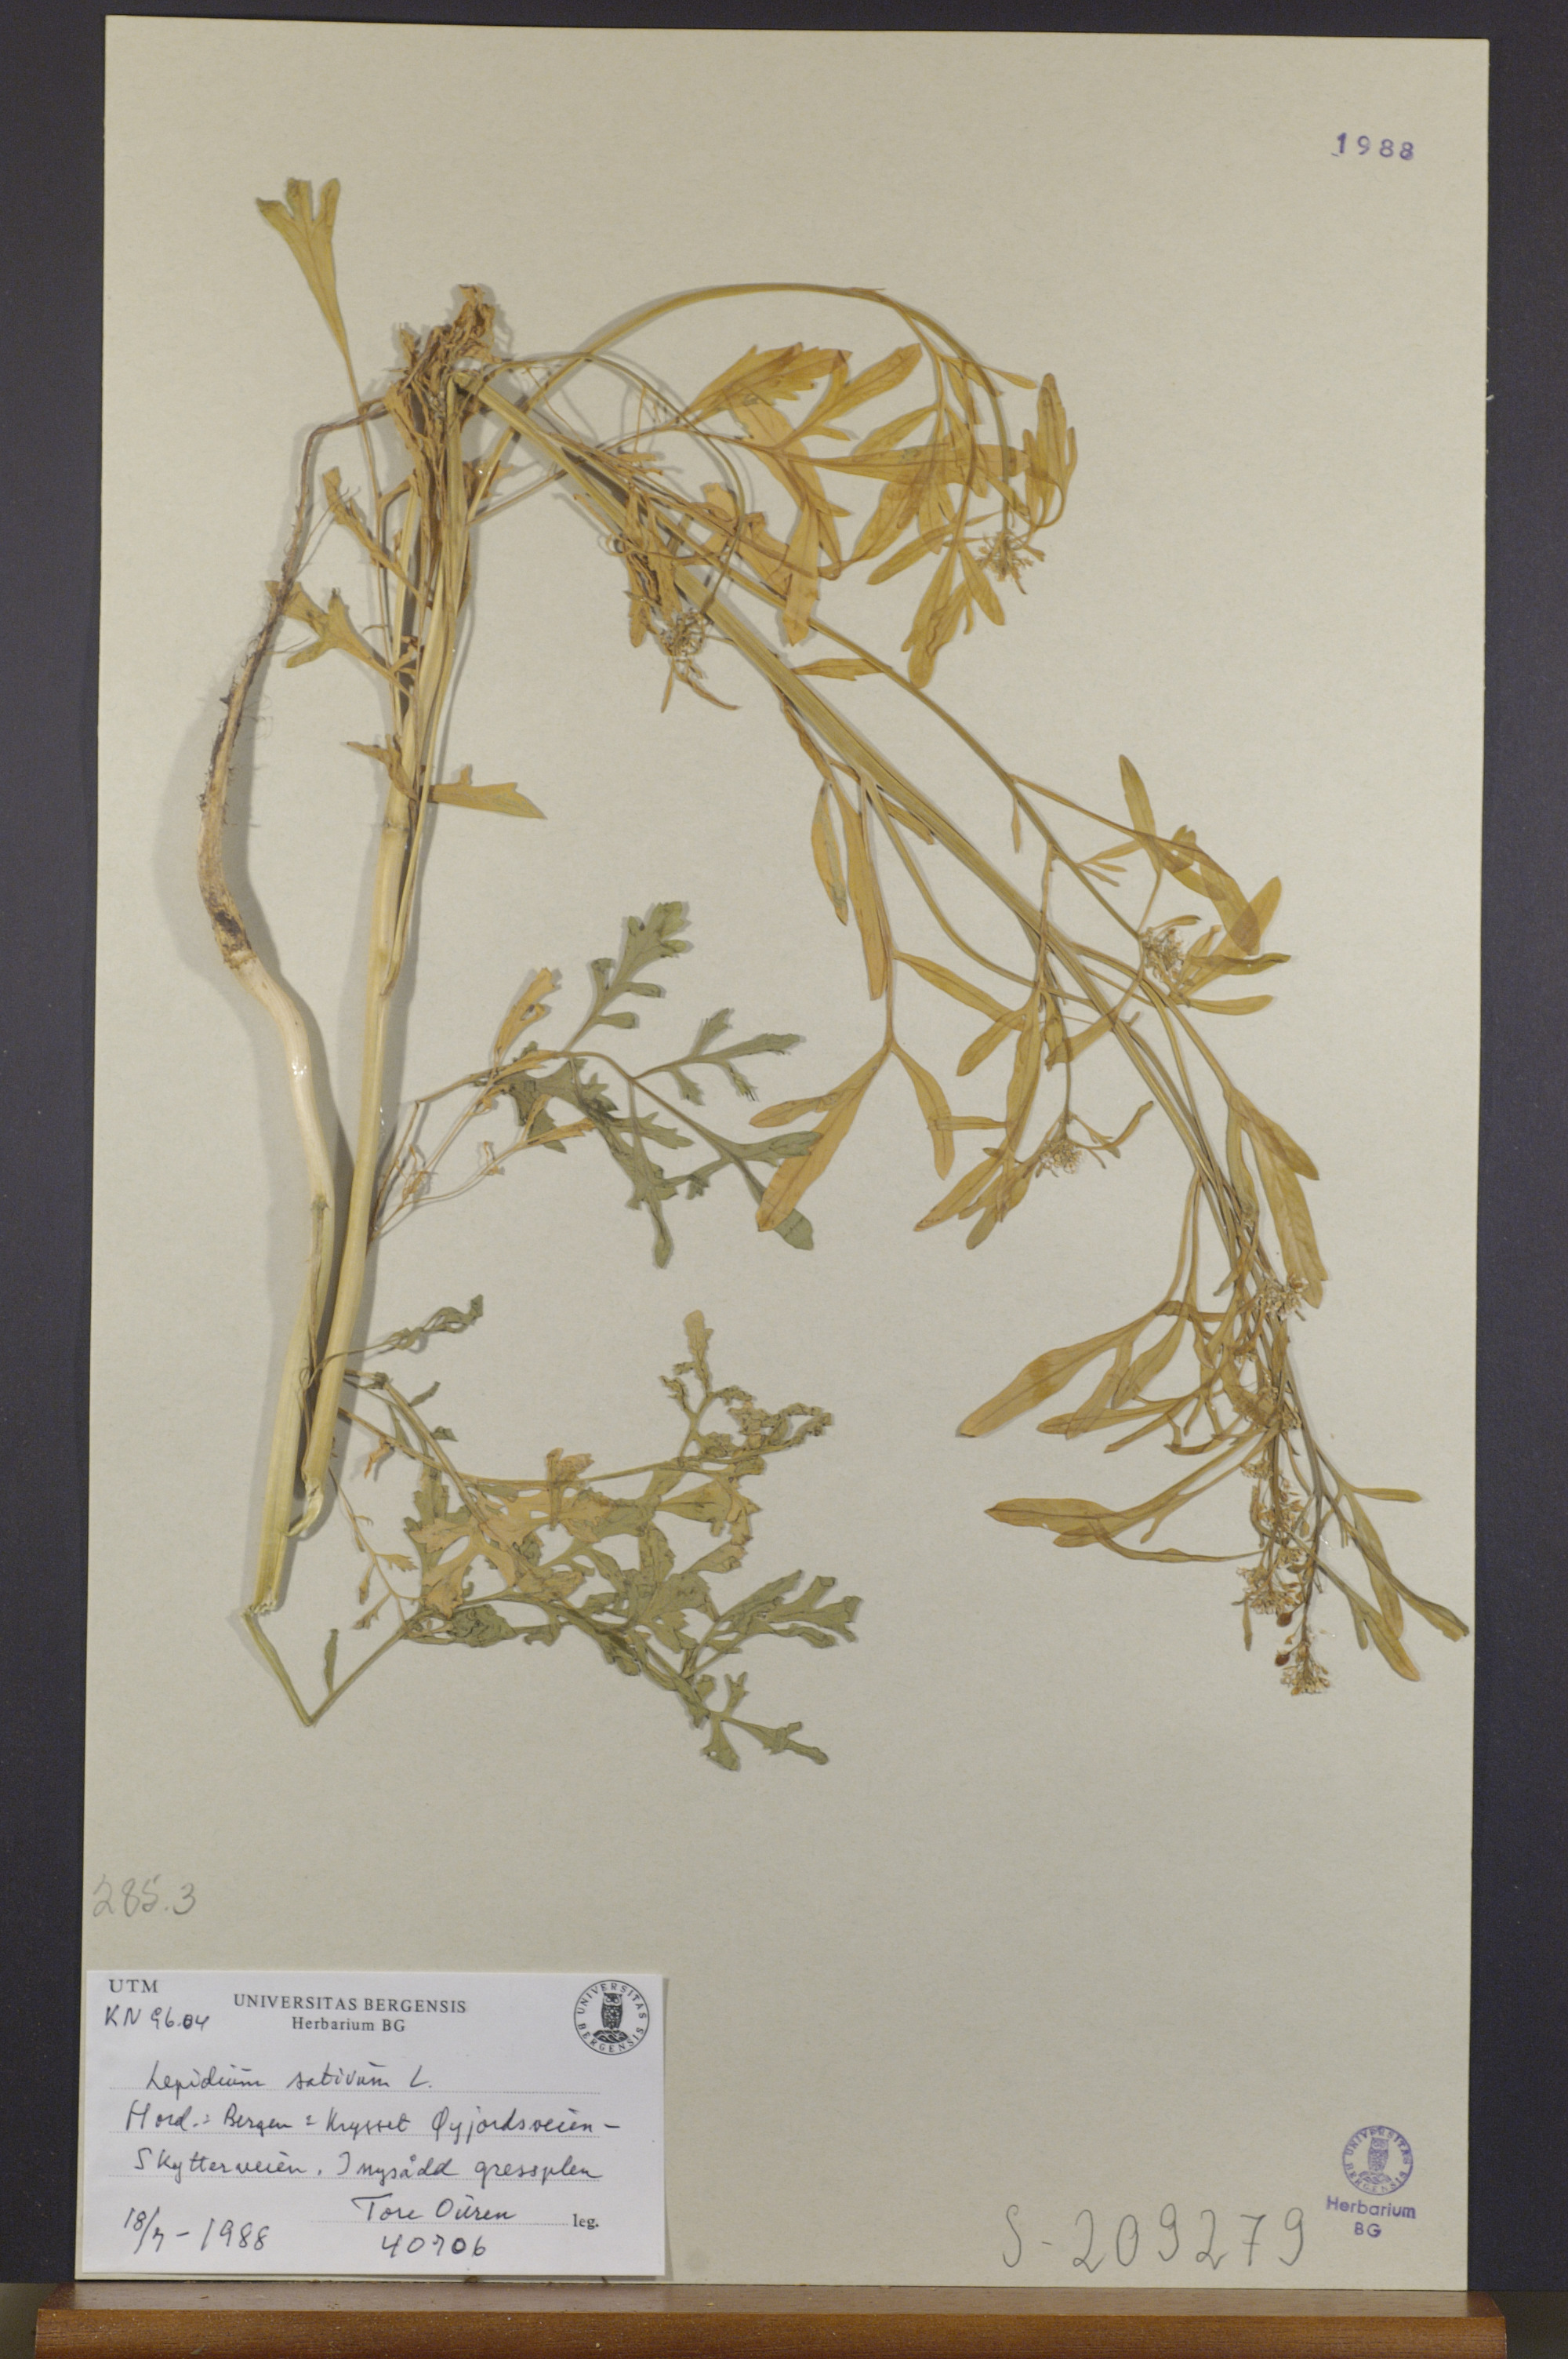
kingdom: Plantae
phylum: Tracheophyta
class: Magnoliopsida
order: Brassicales
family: Brassicaceae
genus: Lepidium
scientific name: Lepidium sativum
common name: Garden cress
